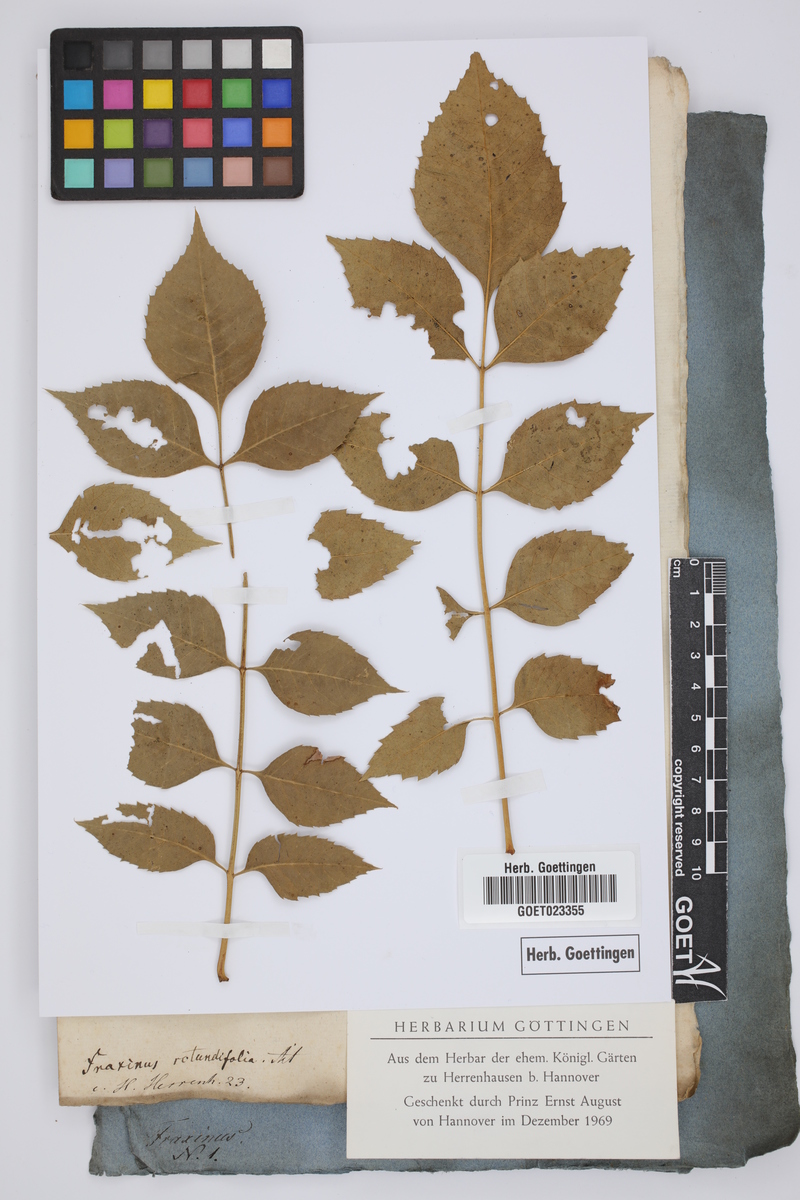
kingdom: Plantae
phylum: Tracheophyta
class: Magnoliopsida
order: Lamiales
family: Oleaceae
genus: Fraxinus
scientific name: Fraxinus ornus
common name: Manna ash
